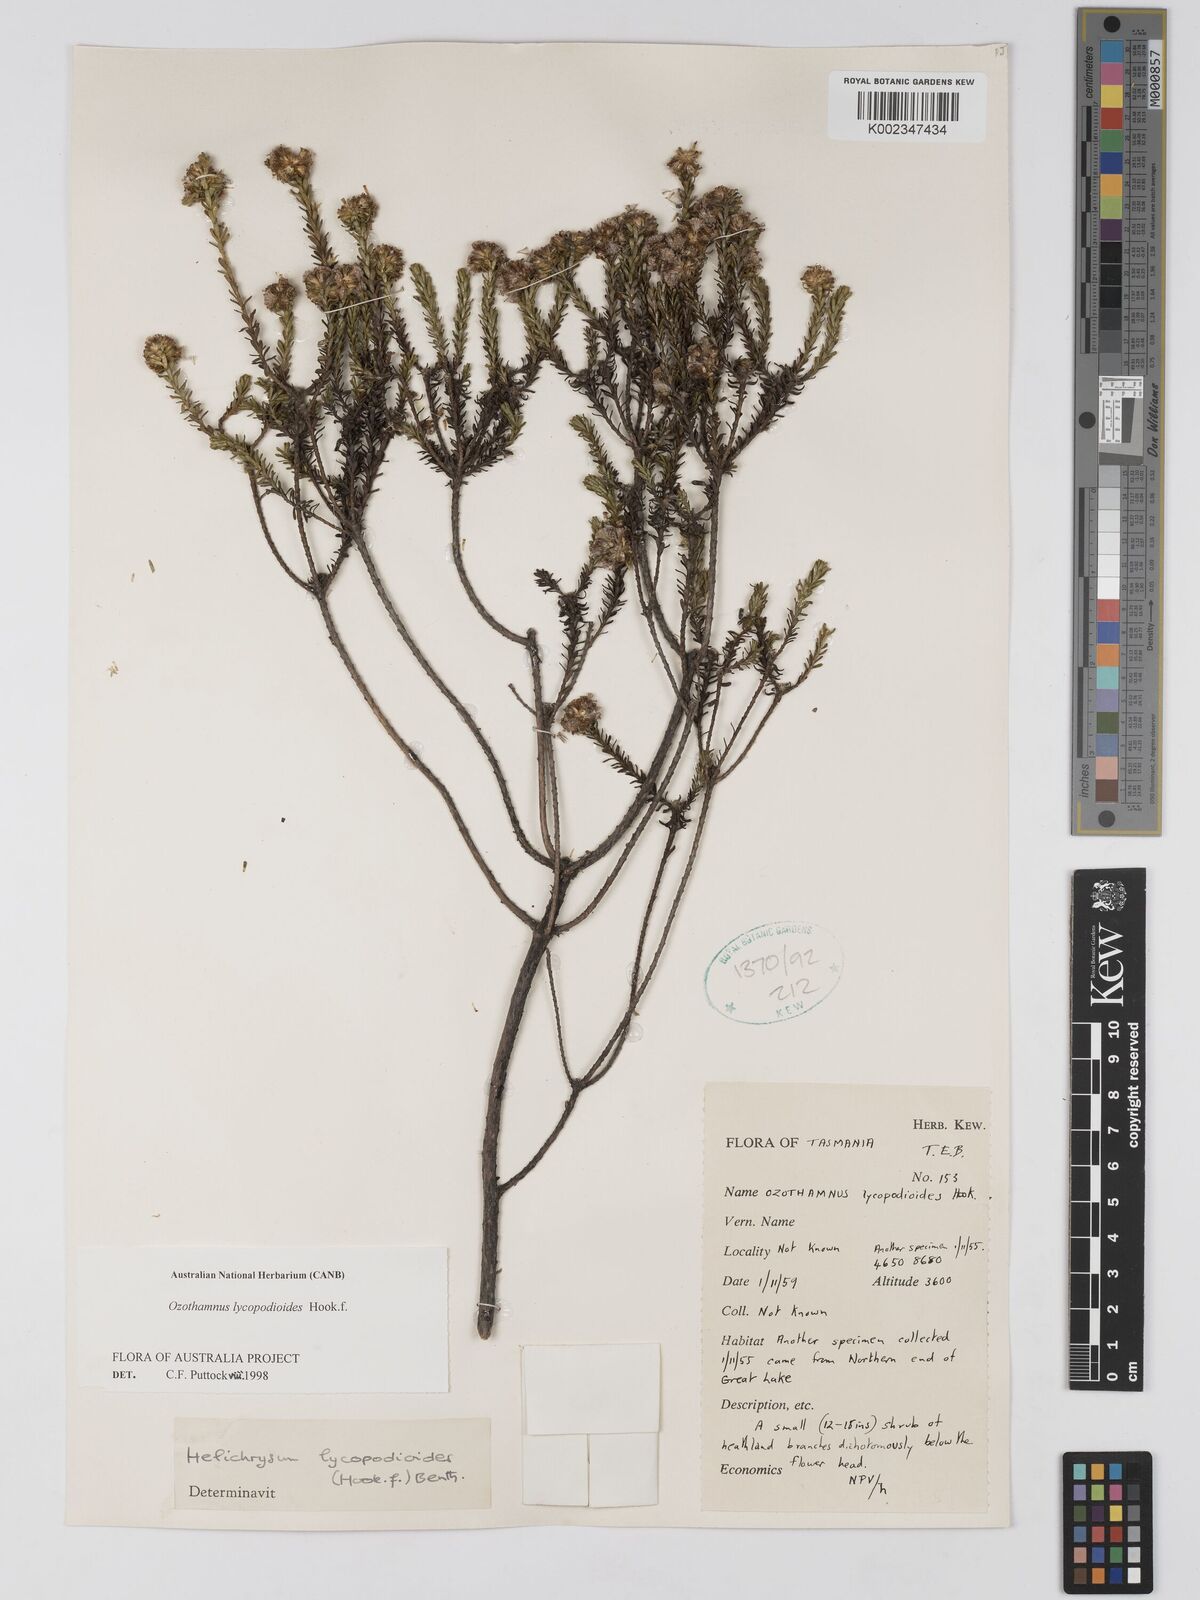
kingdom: Plantae
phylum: Tracheophyta
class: Magnoliopsida
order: Asterales
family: Asteraceae
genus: Ozothamnus
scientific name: Ozothamnus lycopodioides
